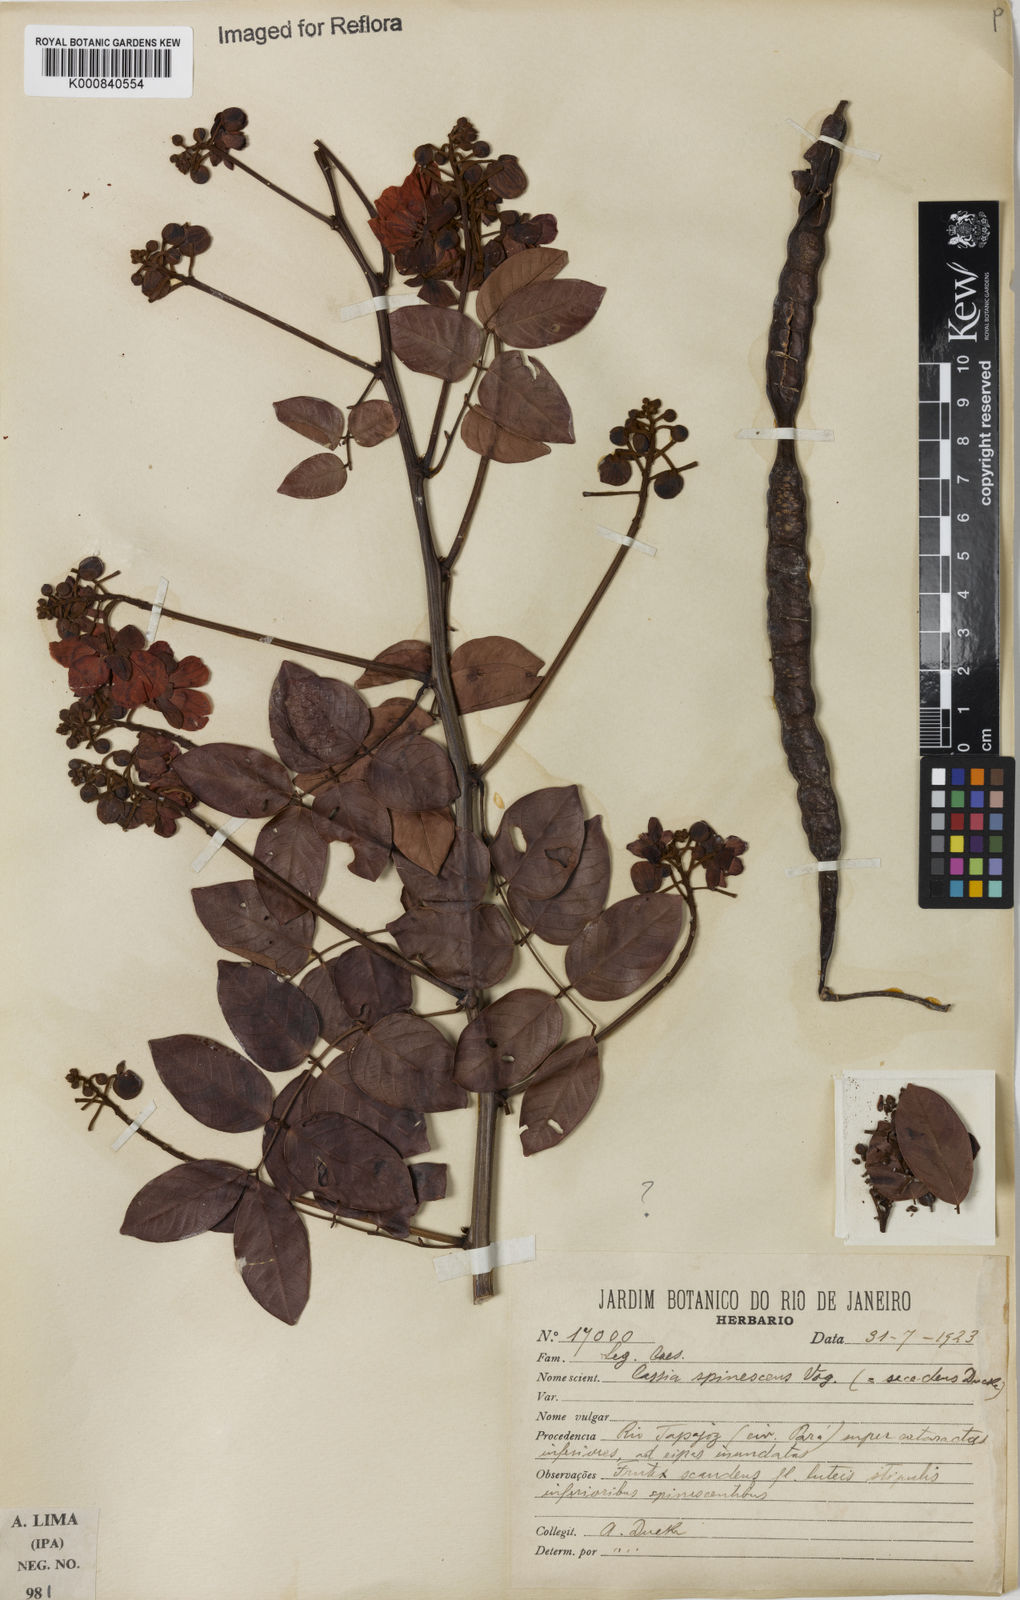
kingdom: Plantae
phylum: Tracheophyta
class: Magnoliopsida
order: Fabales
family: Fabaceae
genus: Senna
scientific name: Senna spinescens
